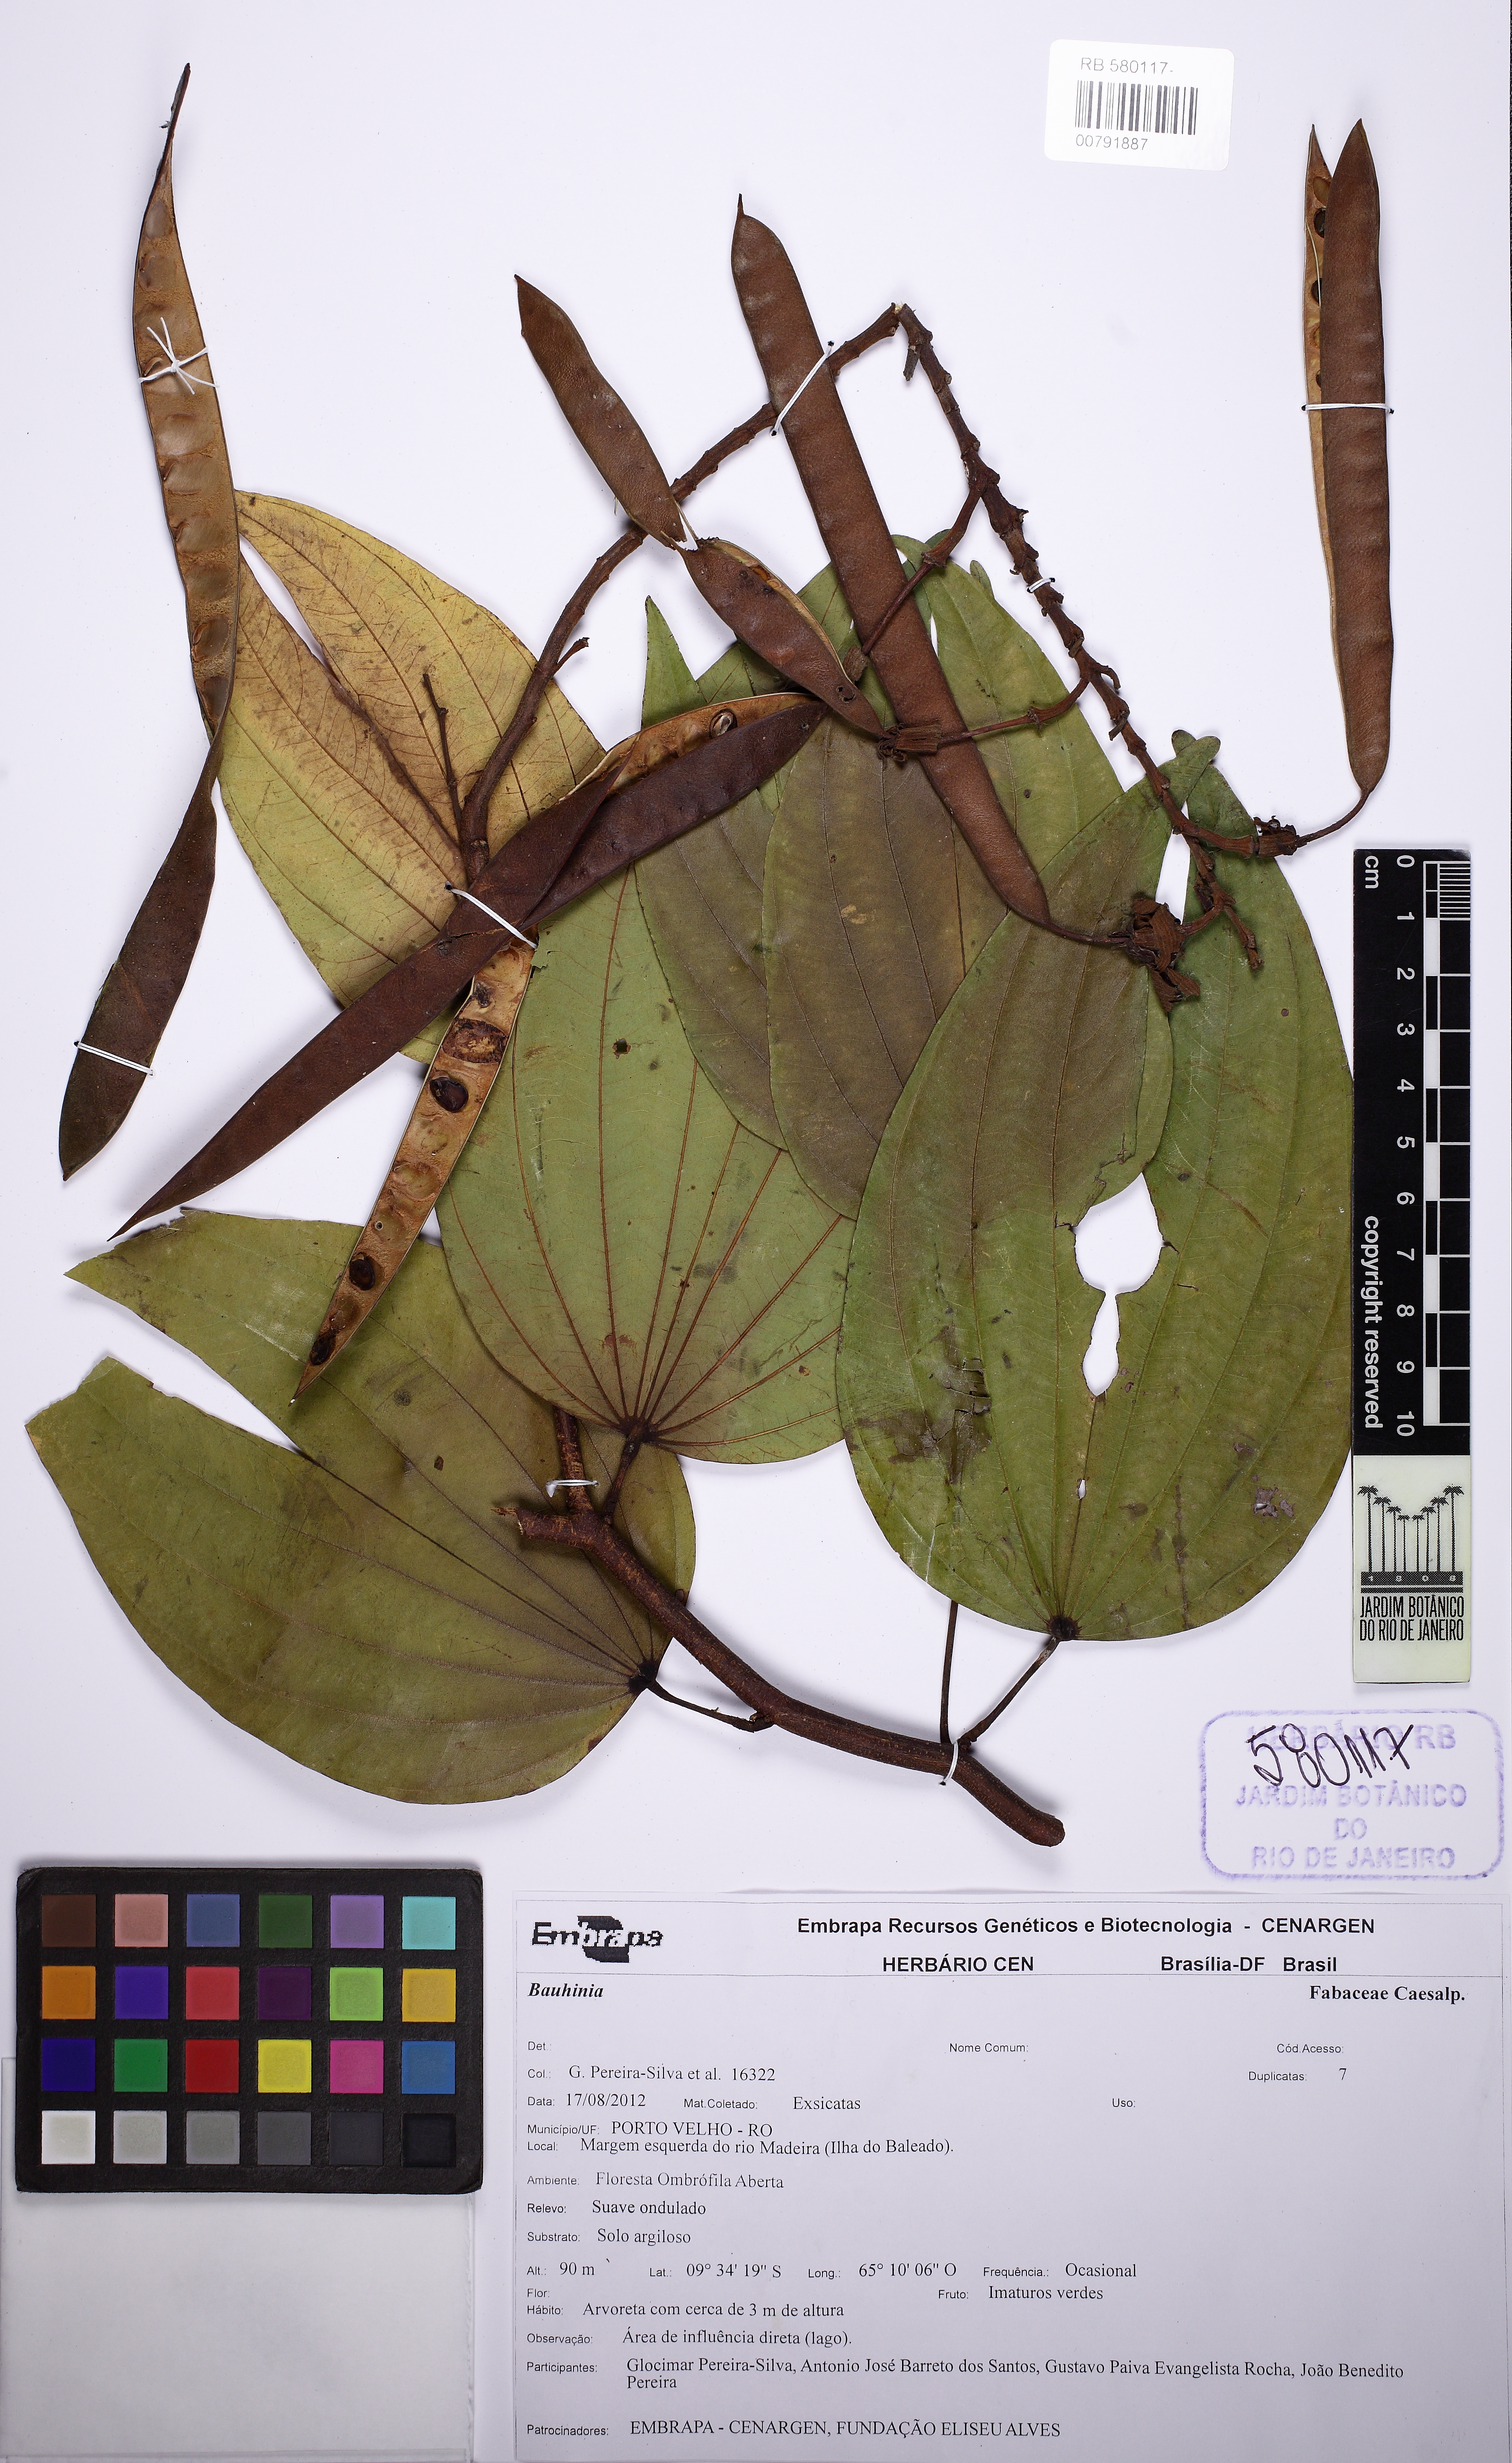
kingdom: Plantae
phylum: Tracheophyta
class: Magnoliopsida
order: Fabales
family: Fabaceae
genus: Bauhinia
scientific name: Bauhinia
